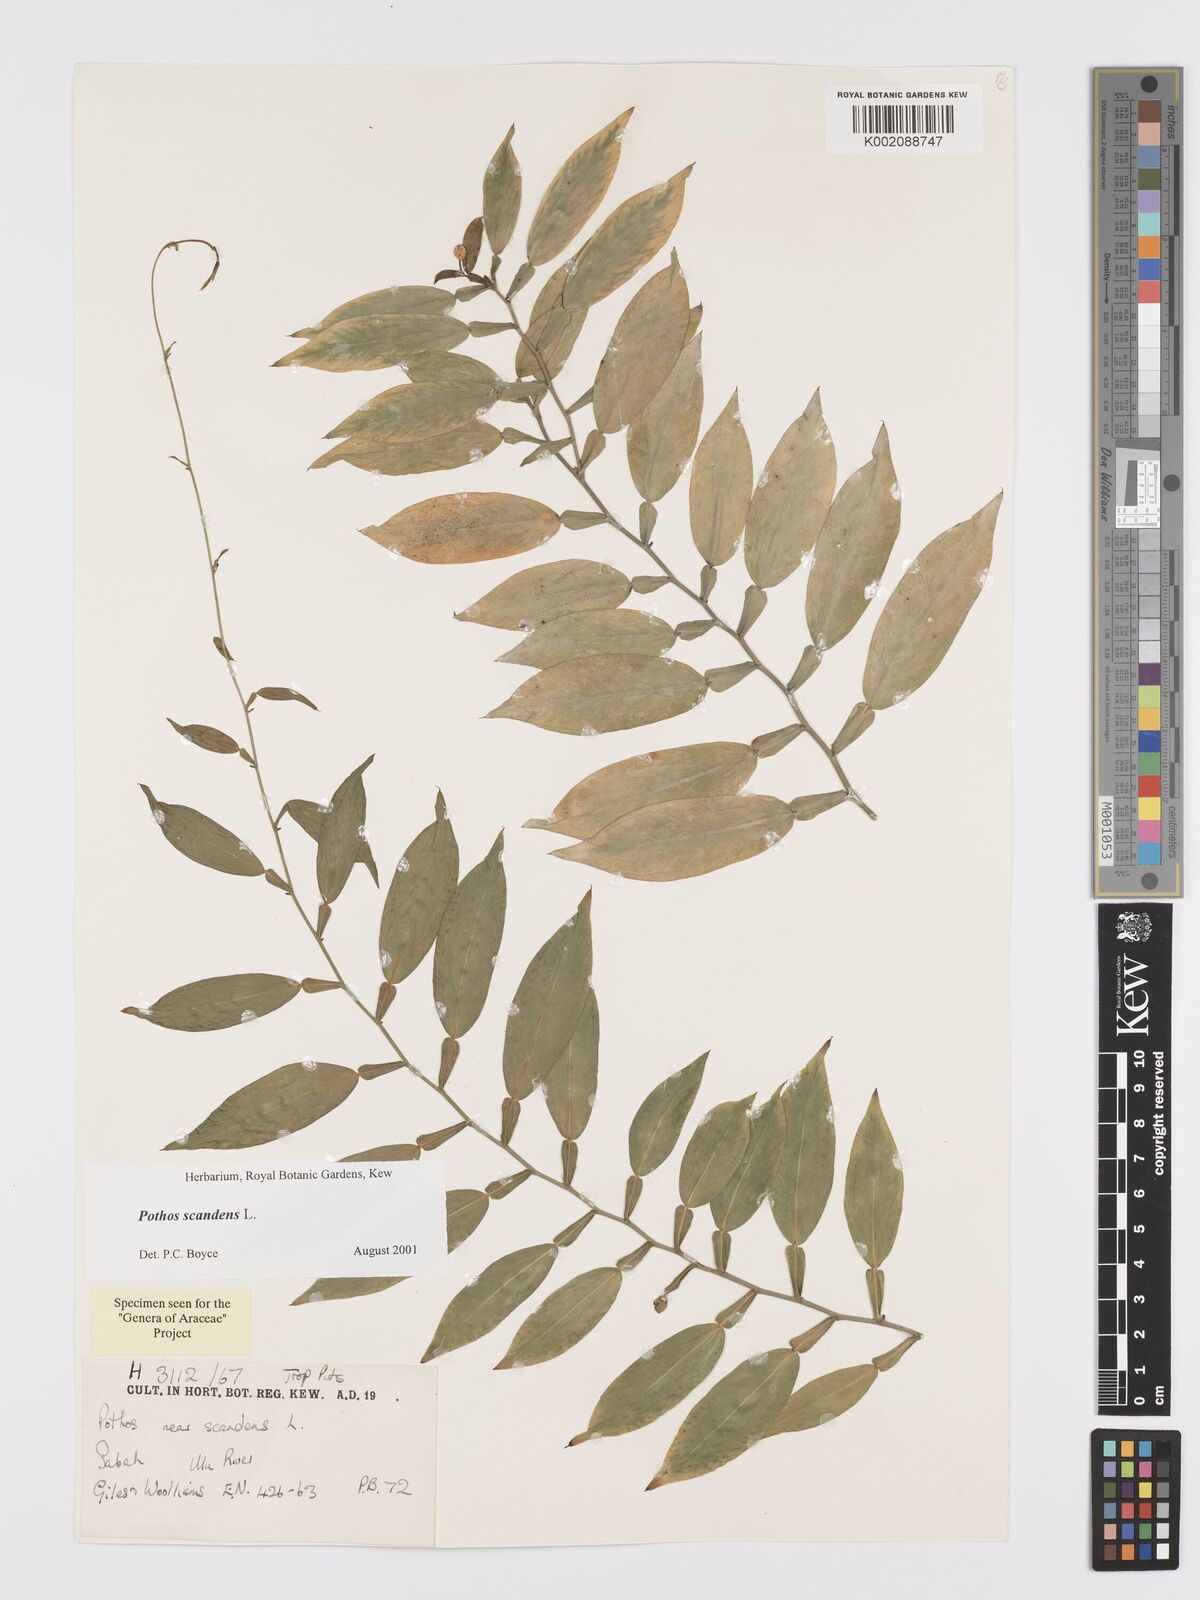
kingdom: Plantae
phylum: Tracheophyta
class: Liliopsida
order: Alismatales
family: Araceae
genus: Pothos
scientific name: Pothos scandens
